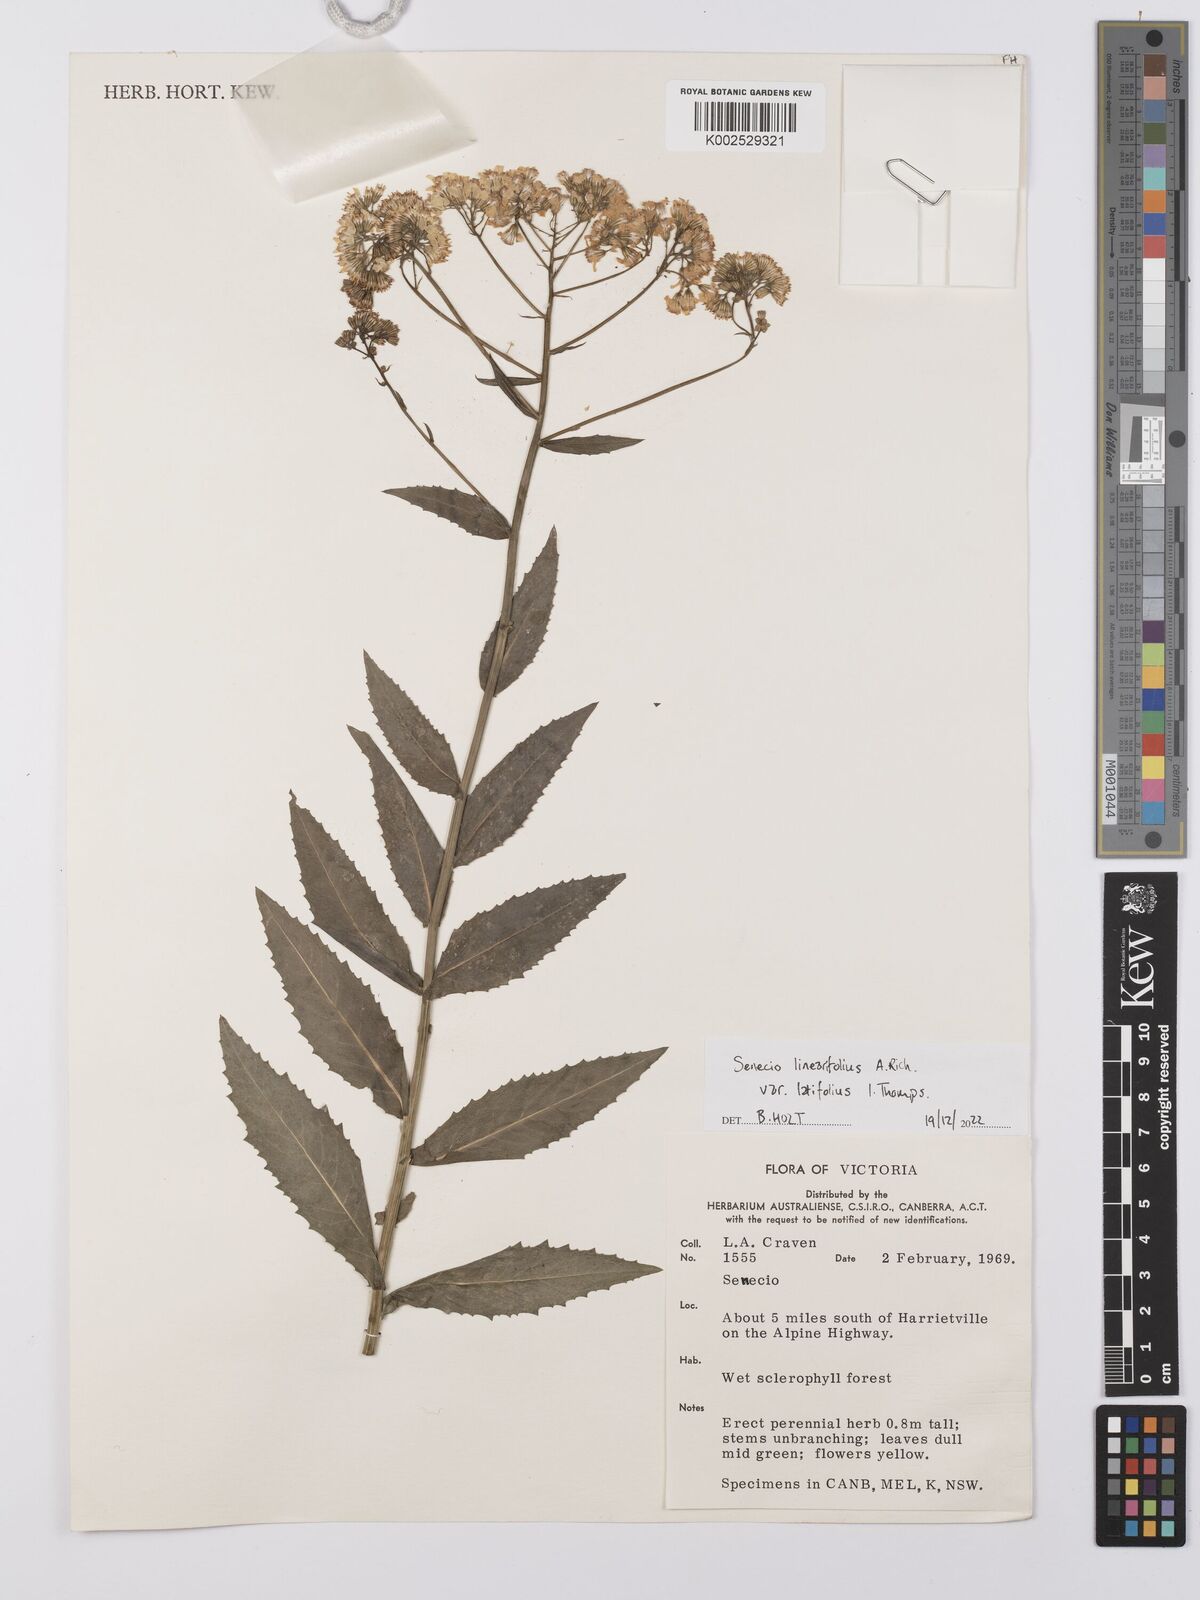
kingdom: Plantae
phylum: Tracheophyta
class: Magnoliopsida
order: Asterales
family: Asteraceae
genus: Senecio
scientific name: Senecio linearifolius
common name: Fireweed groundsel
